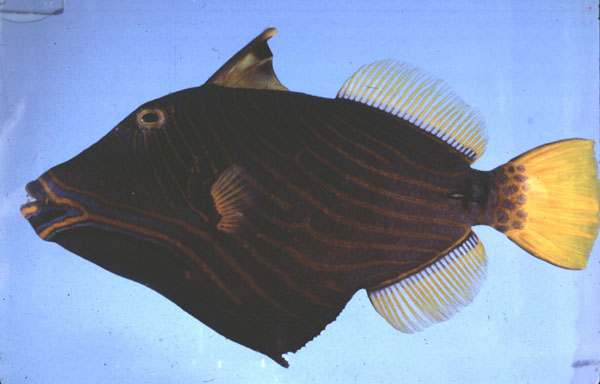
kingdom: Animalia
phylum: Chordata
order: Tetraodontiformes
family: Balistidae
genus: Balistapus
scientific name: Balistapus undulatus
